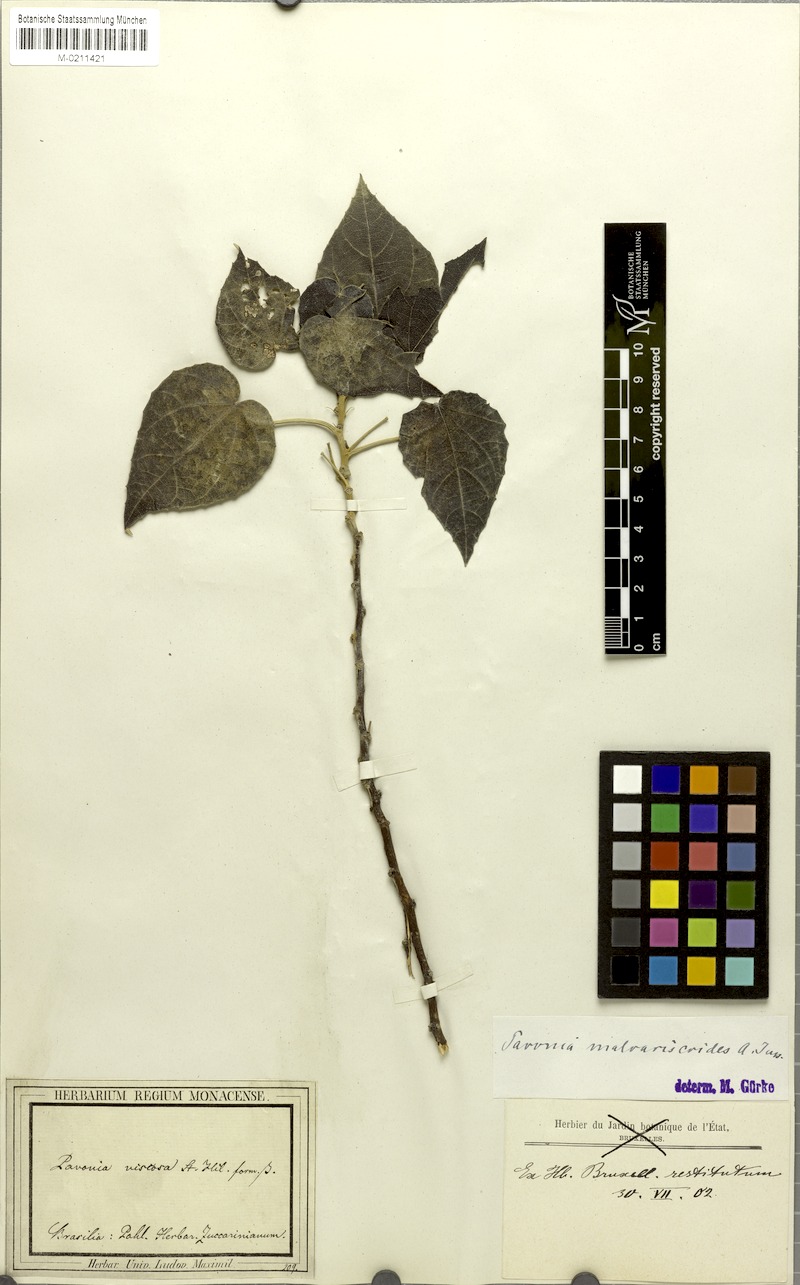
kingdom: Plantae
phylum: Tracheophyta
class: Magnoliopsida
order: Malvales
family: Malvaceae
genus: Pavonia
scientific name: Pavonia malvaviscoides
